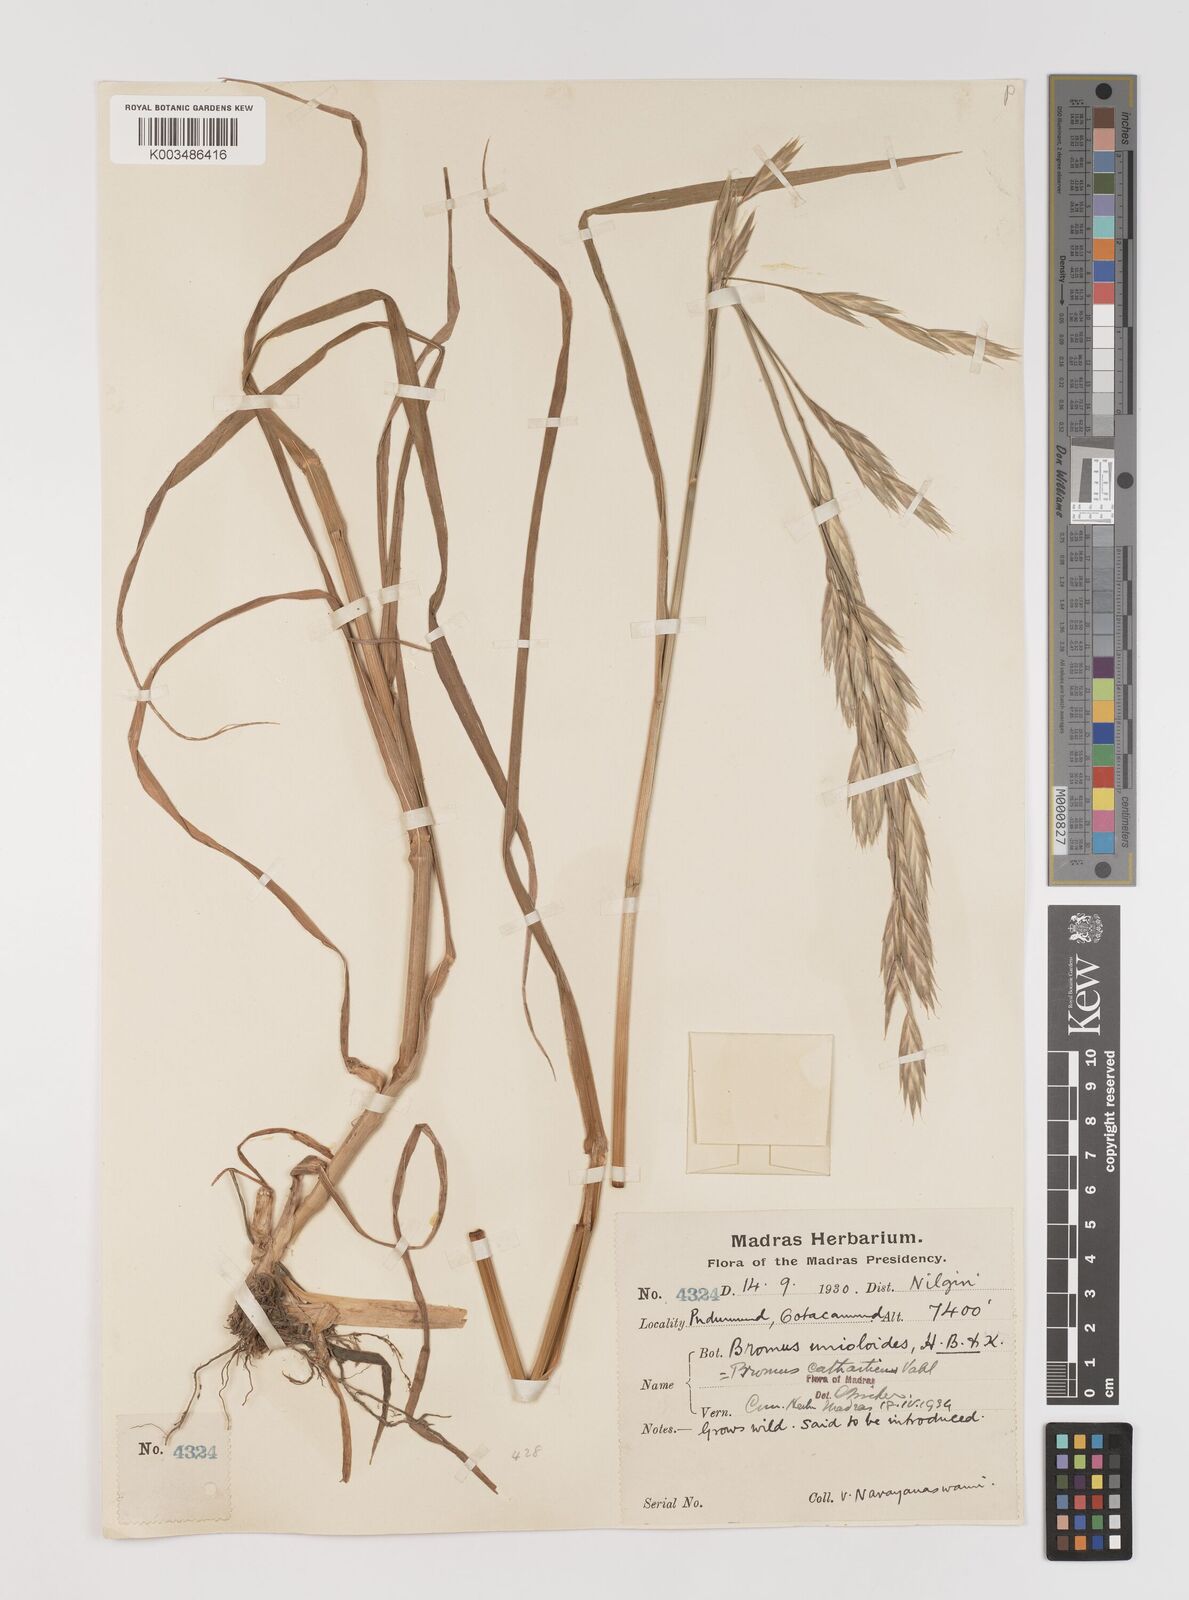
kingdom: Plantae
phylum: Tracheophyta
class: Liliopsida
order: Poales
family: Poaceae
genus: Bromus
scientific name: Bromus catharticus
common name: Rescuegrass
